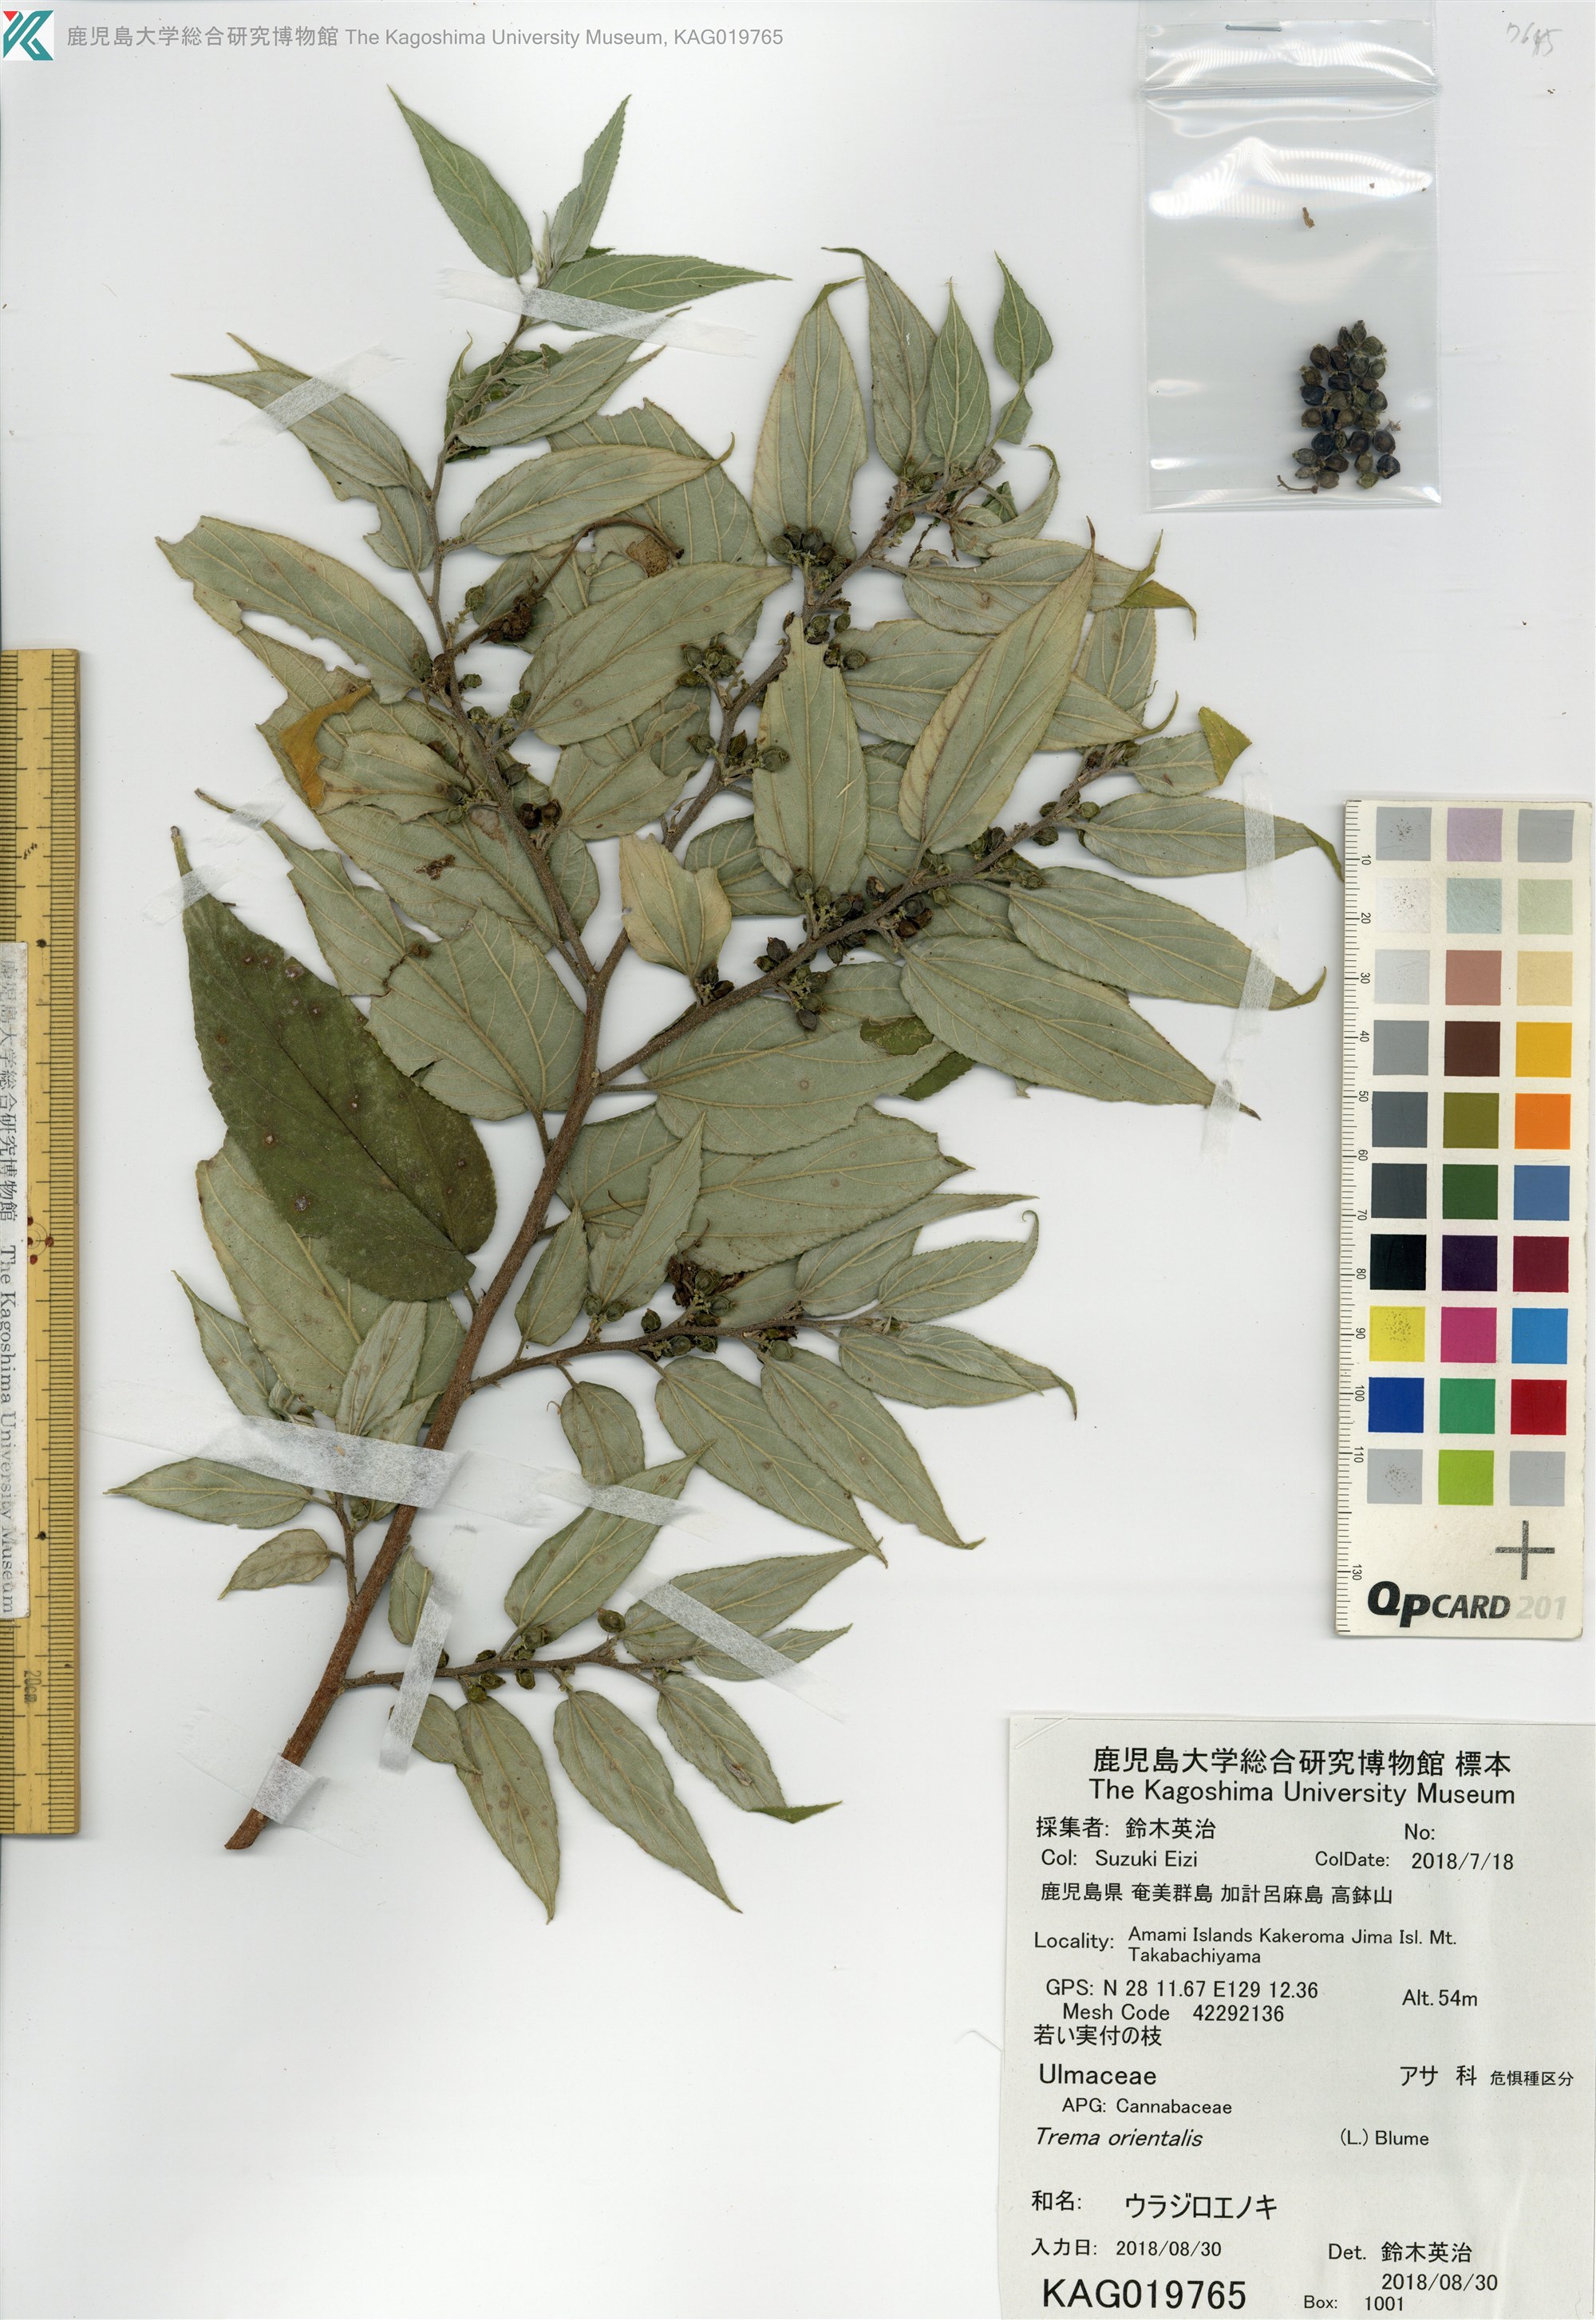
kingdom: Plantae
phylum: Tracheophyta
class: Magnoliopsida
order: Rosales
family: Cannabaceae
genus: Trema
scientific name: Trema orientale
